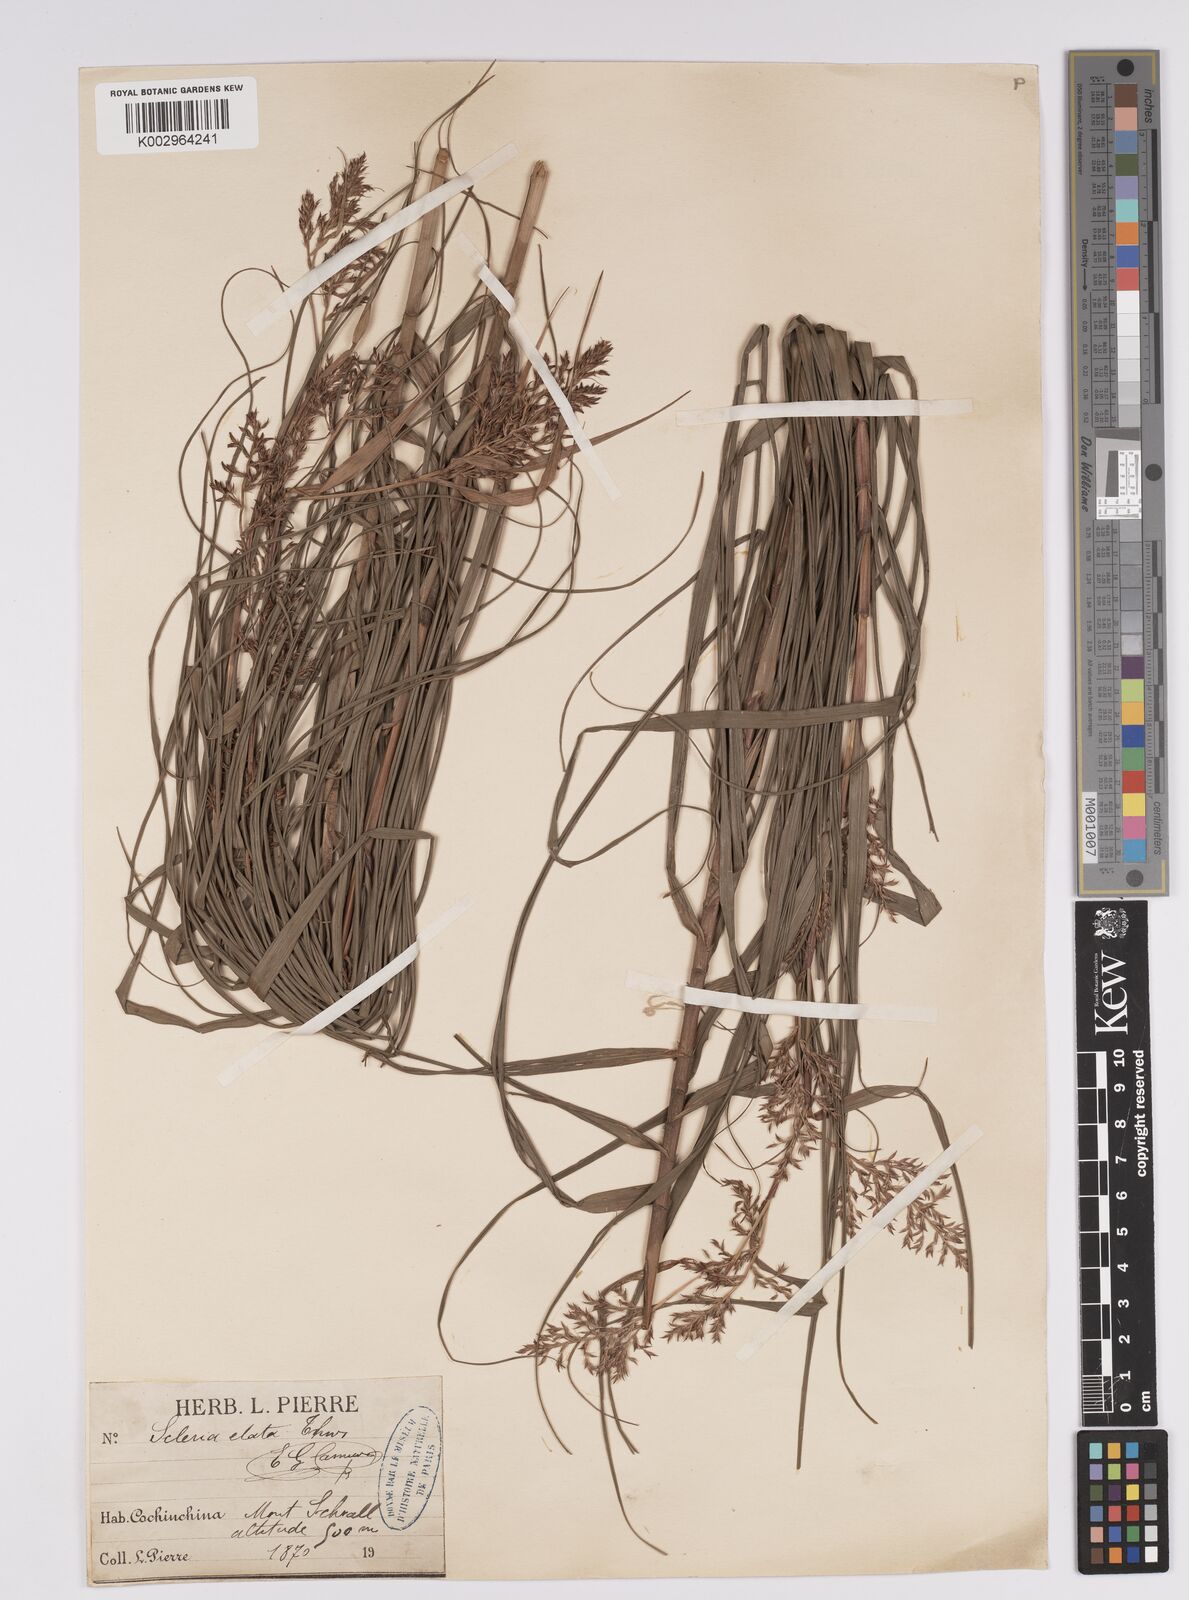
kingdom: Plantae
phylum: Tracheophyta
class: Liliopsida
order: Poales
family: Cyperaceae
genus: Scleria
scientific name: Scleria terrestris
